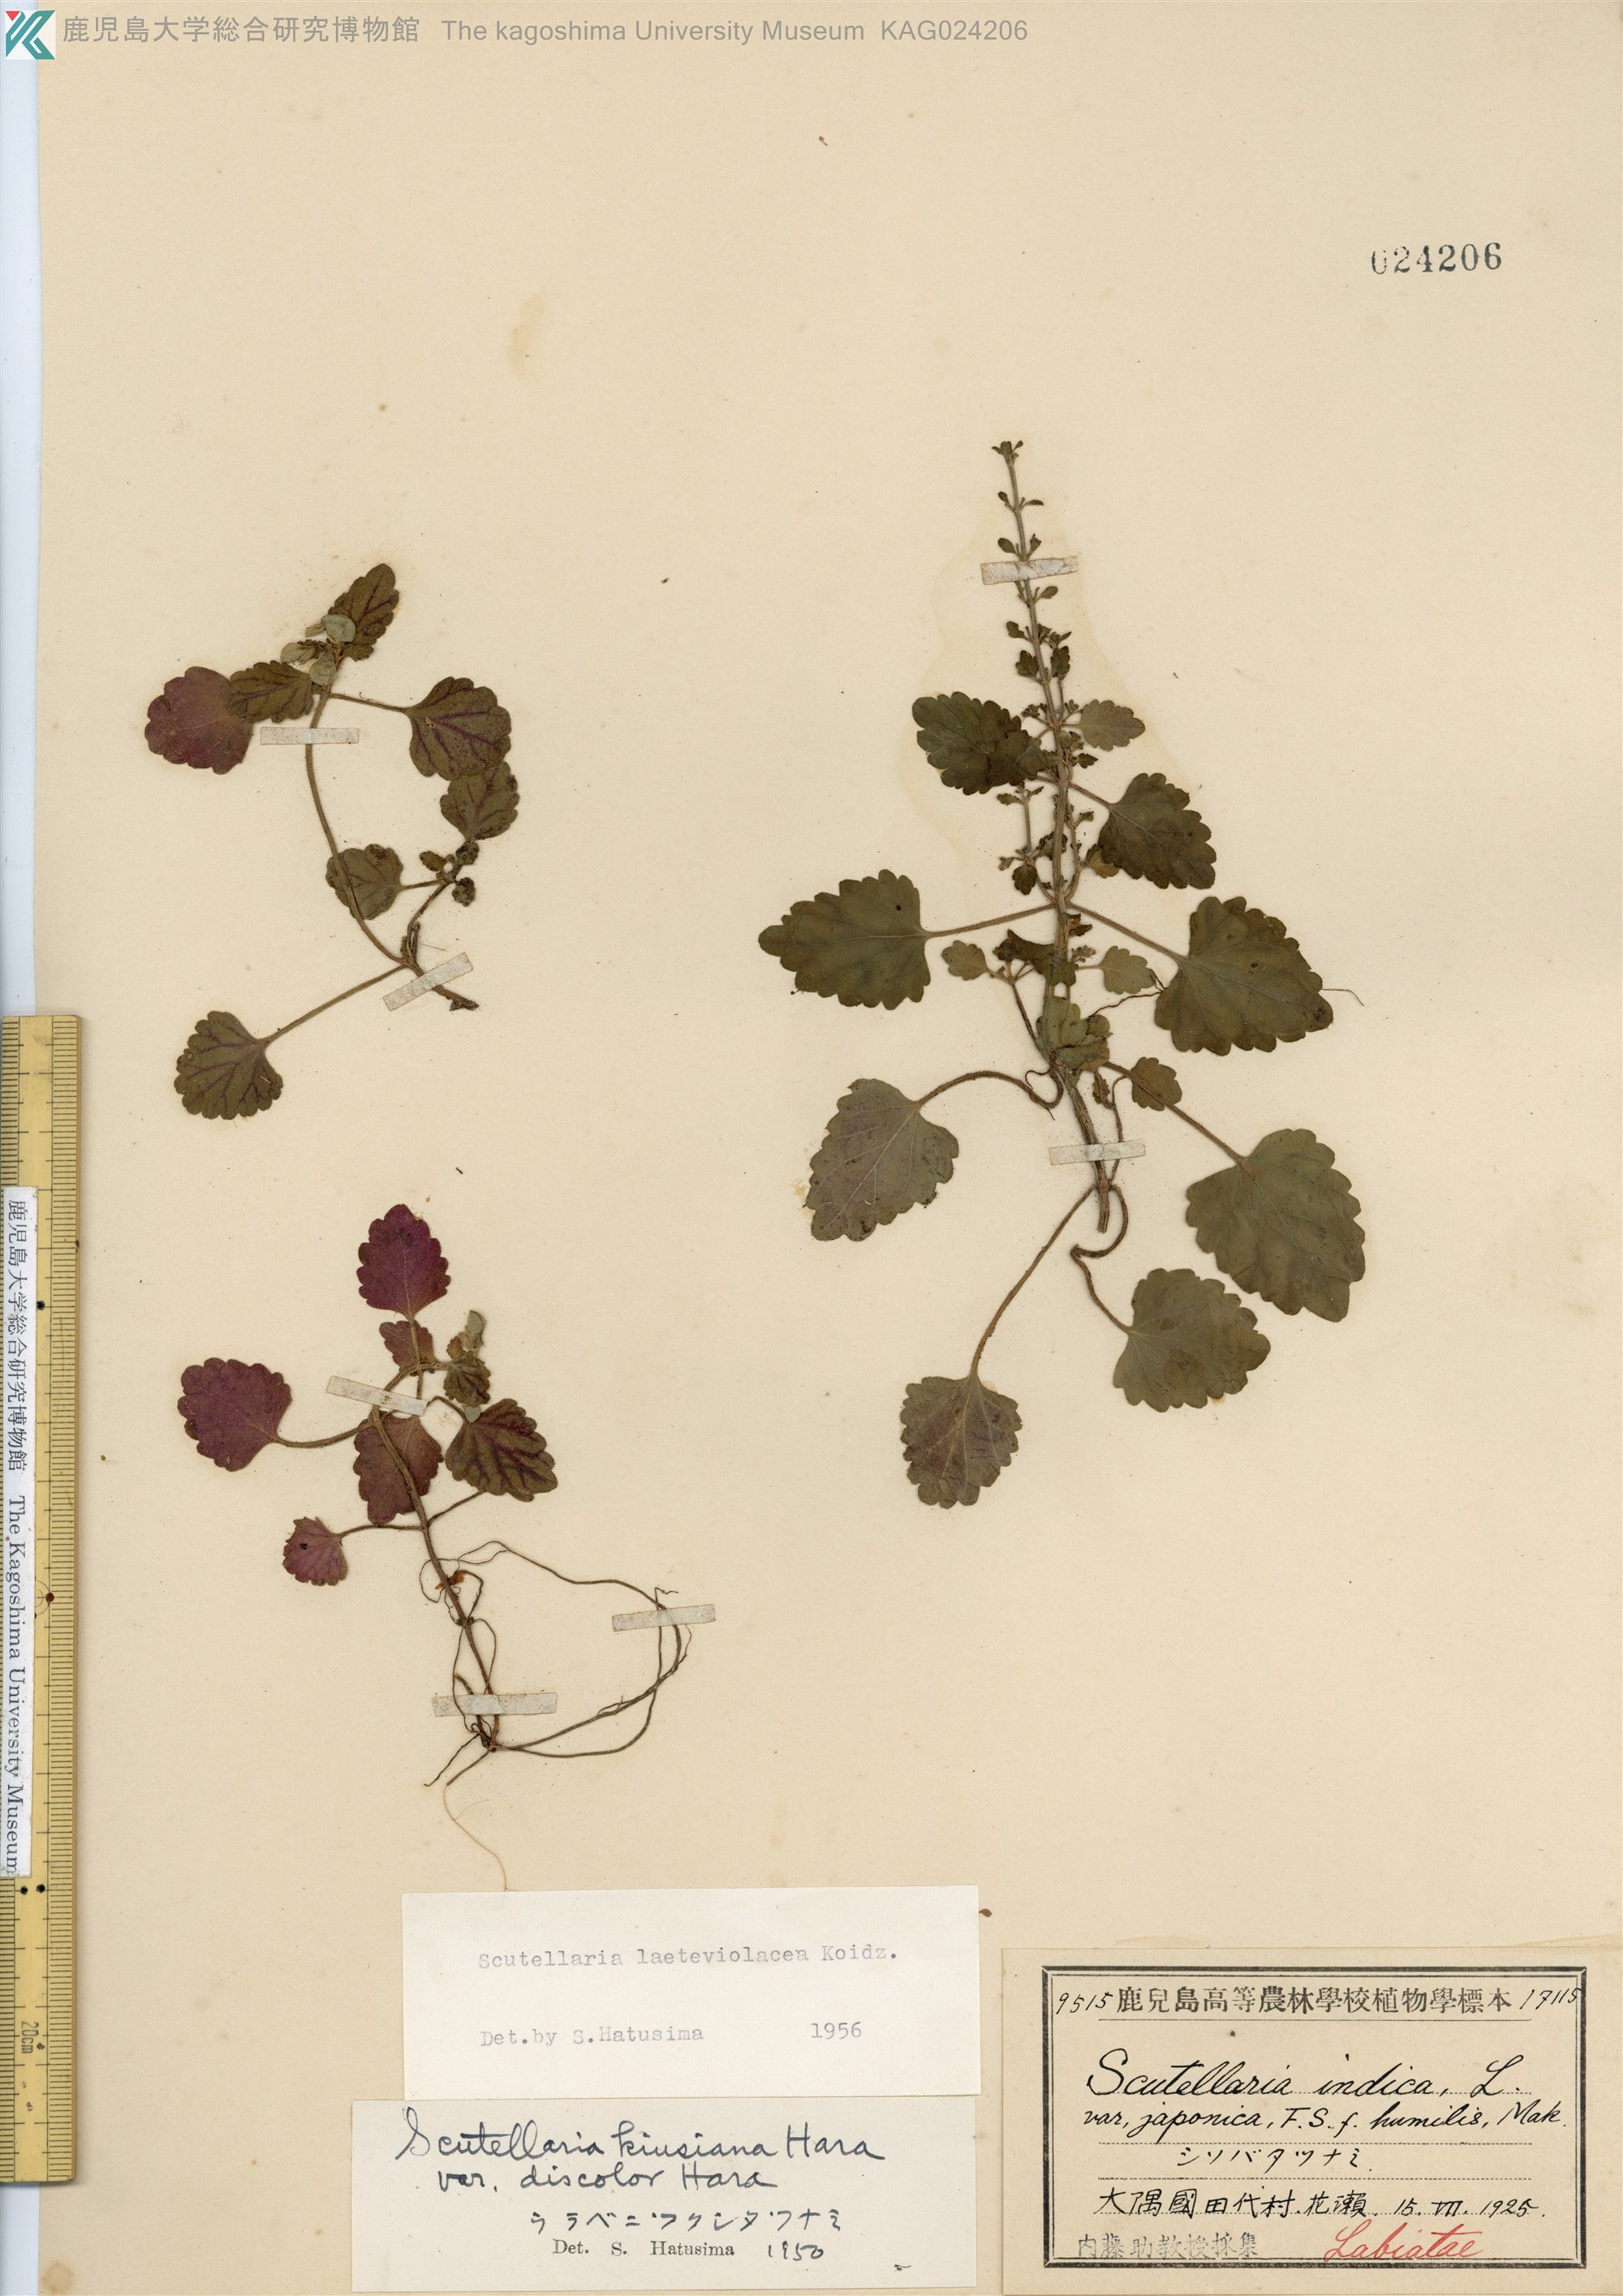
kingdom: Plantae
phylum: Tracheophyta
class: Magnoliopsida
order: Lamiales
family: Lamiaceae
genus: Scutellaria
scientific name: Scutellaria laeteviolacea
